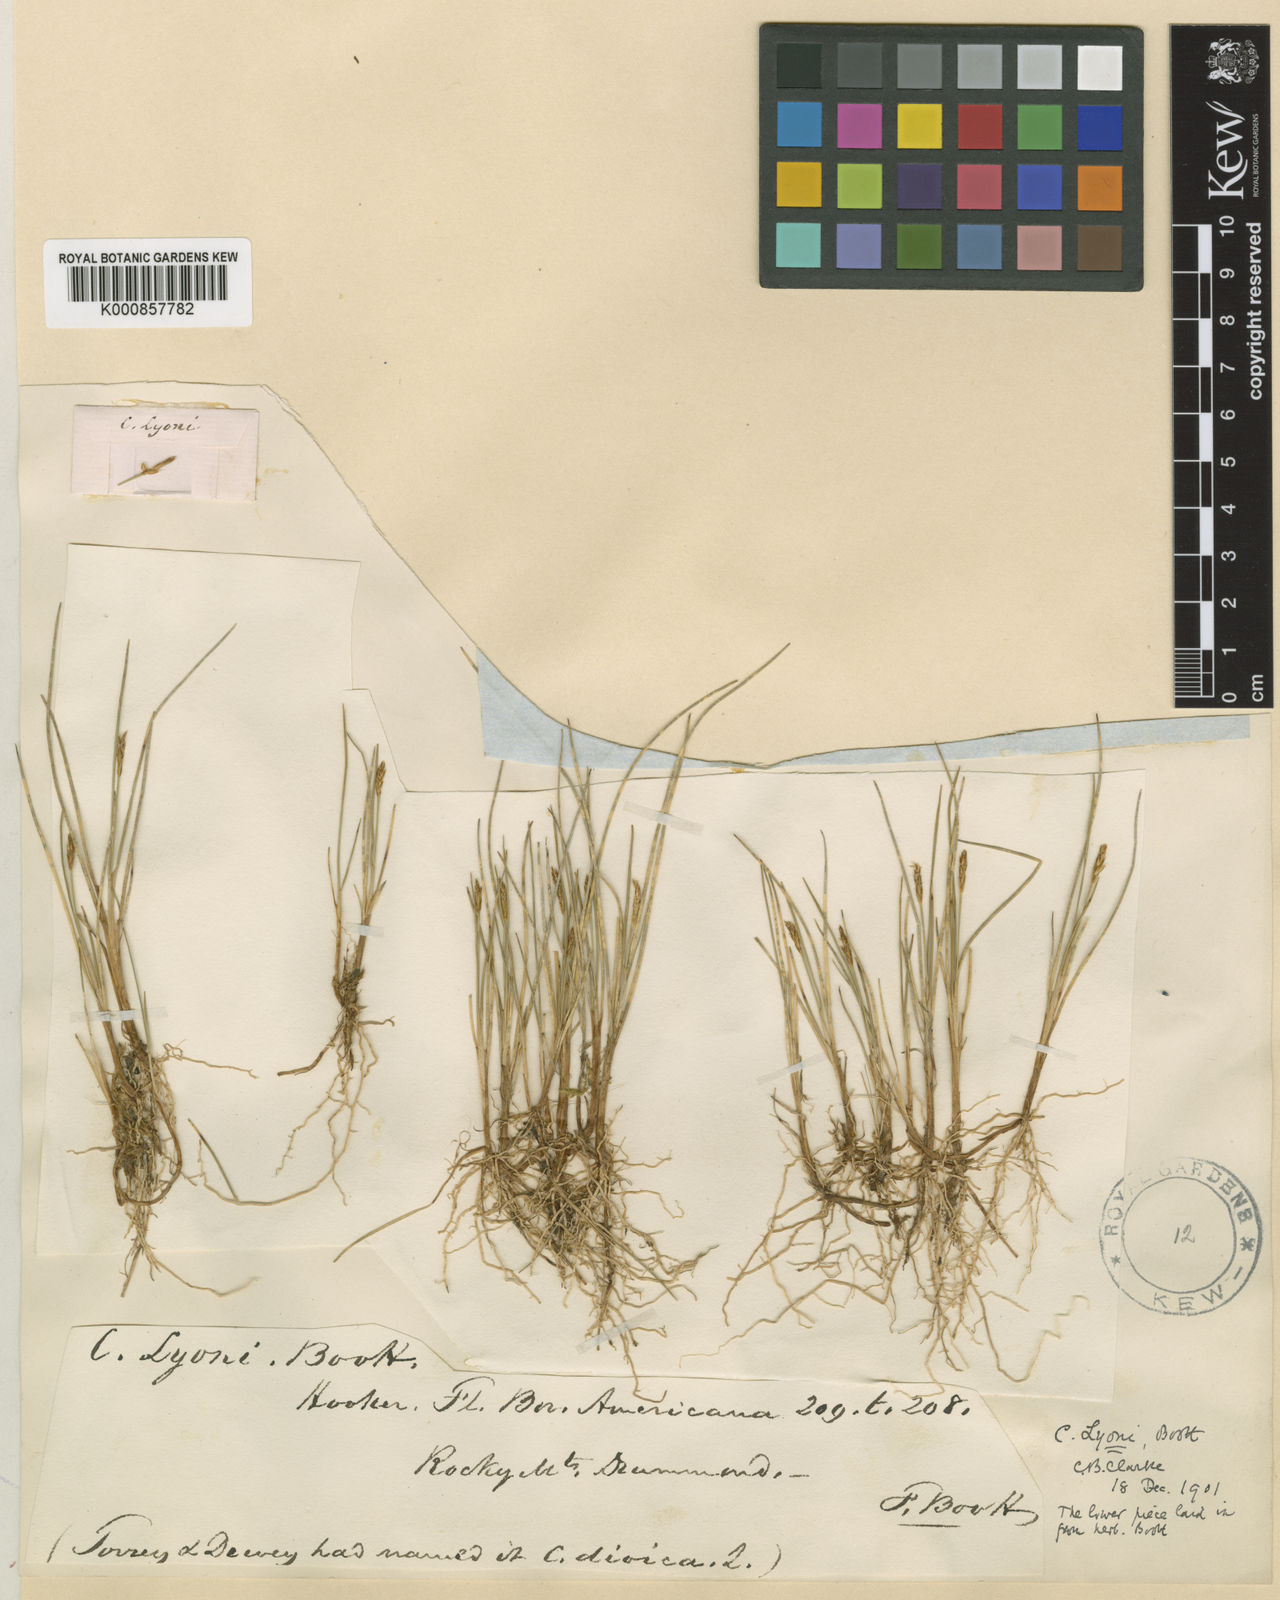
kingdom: Plantae
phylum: Tracheophyta
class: Liliopsida
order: Poales
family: Cyperaceae
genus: Carex
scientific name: Carex microglochin
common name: Bristle sedge
